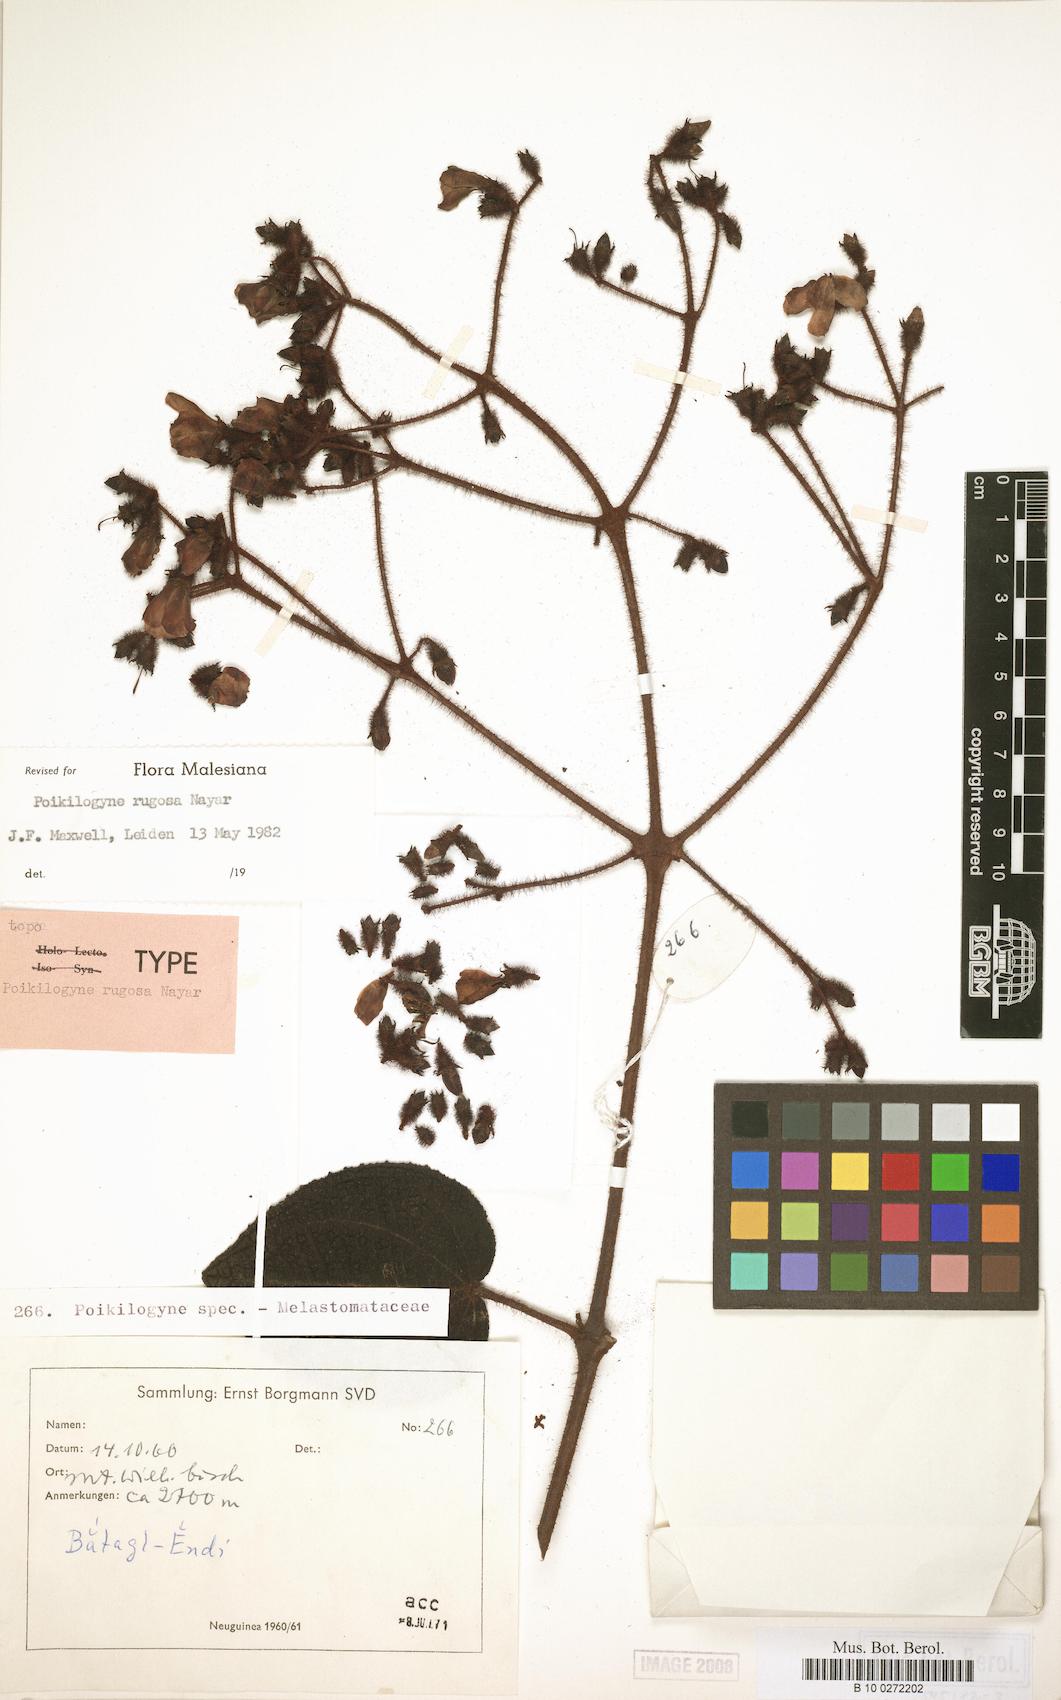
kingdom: Plantae
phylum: Tracheophyta
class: Magnoliopsida
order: Myrtales
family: Melastomataceae
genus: Poikilogyne
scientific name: Poikilogyne rugosa
